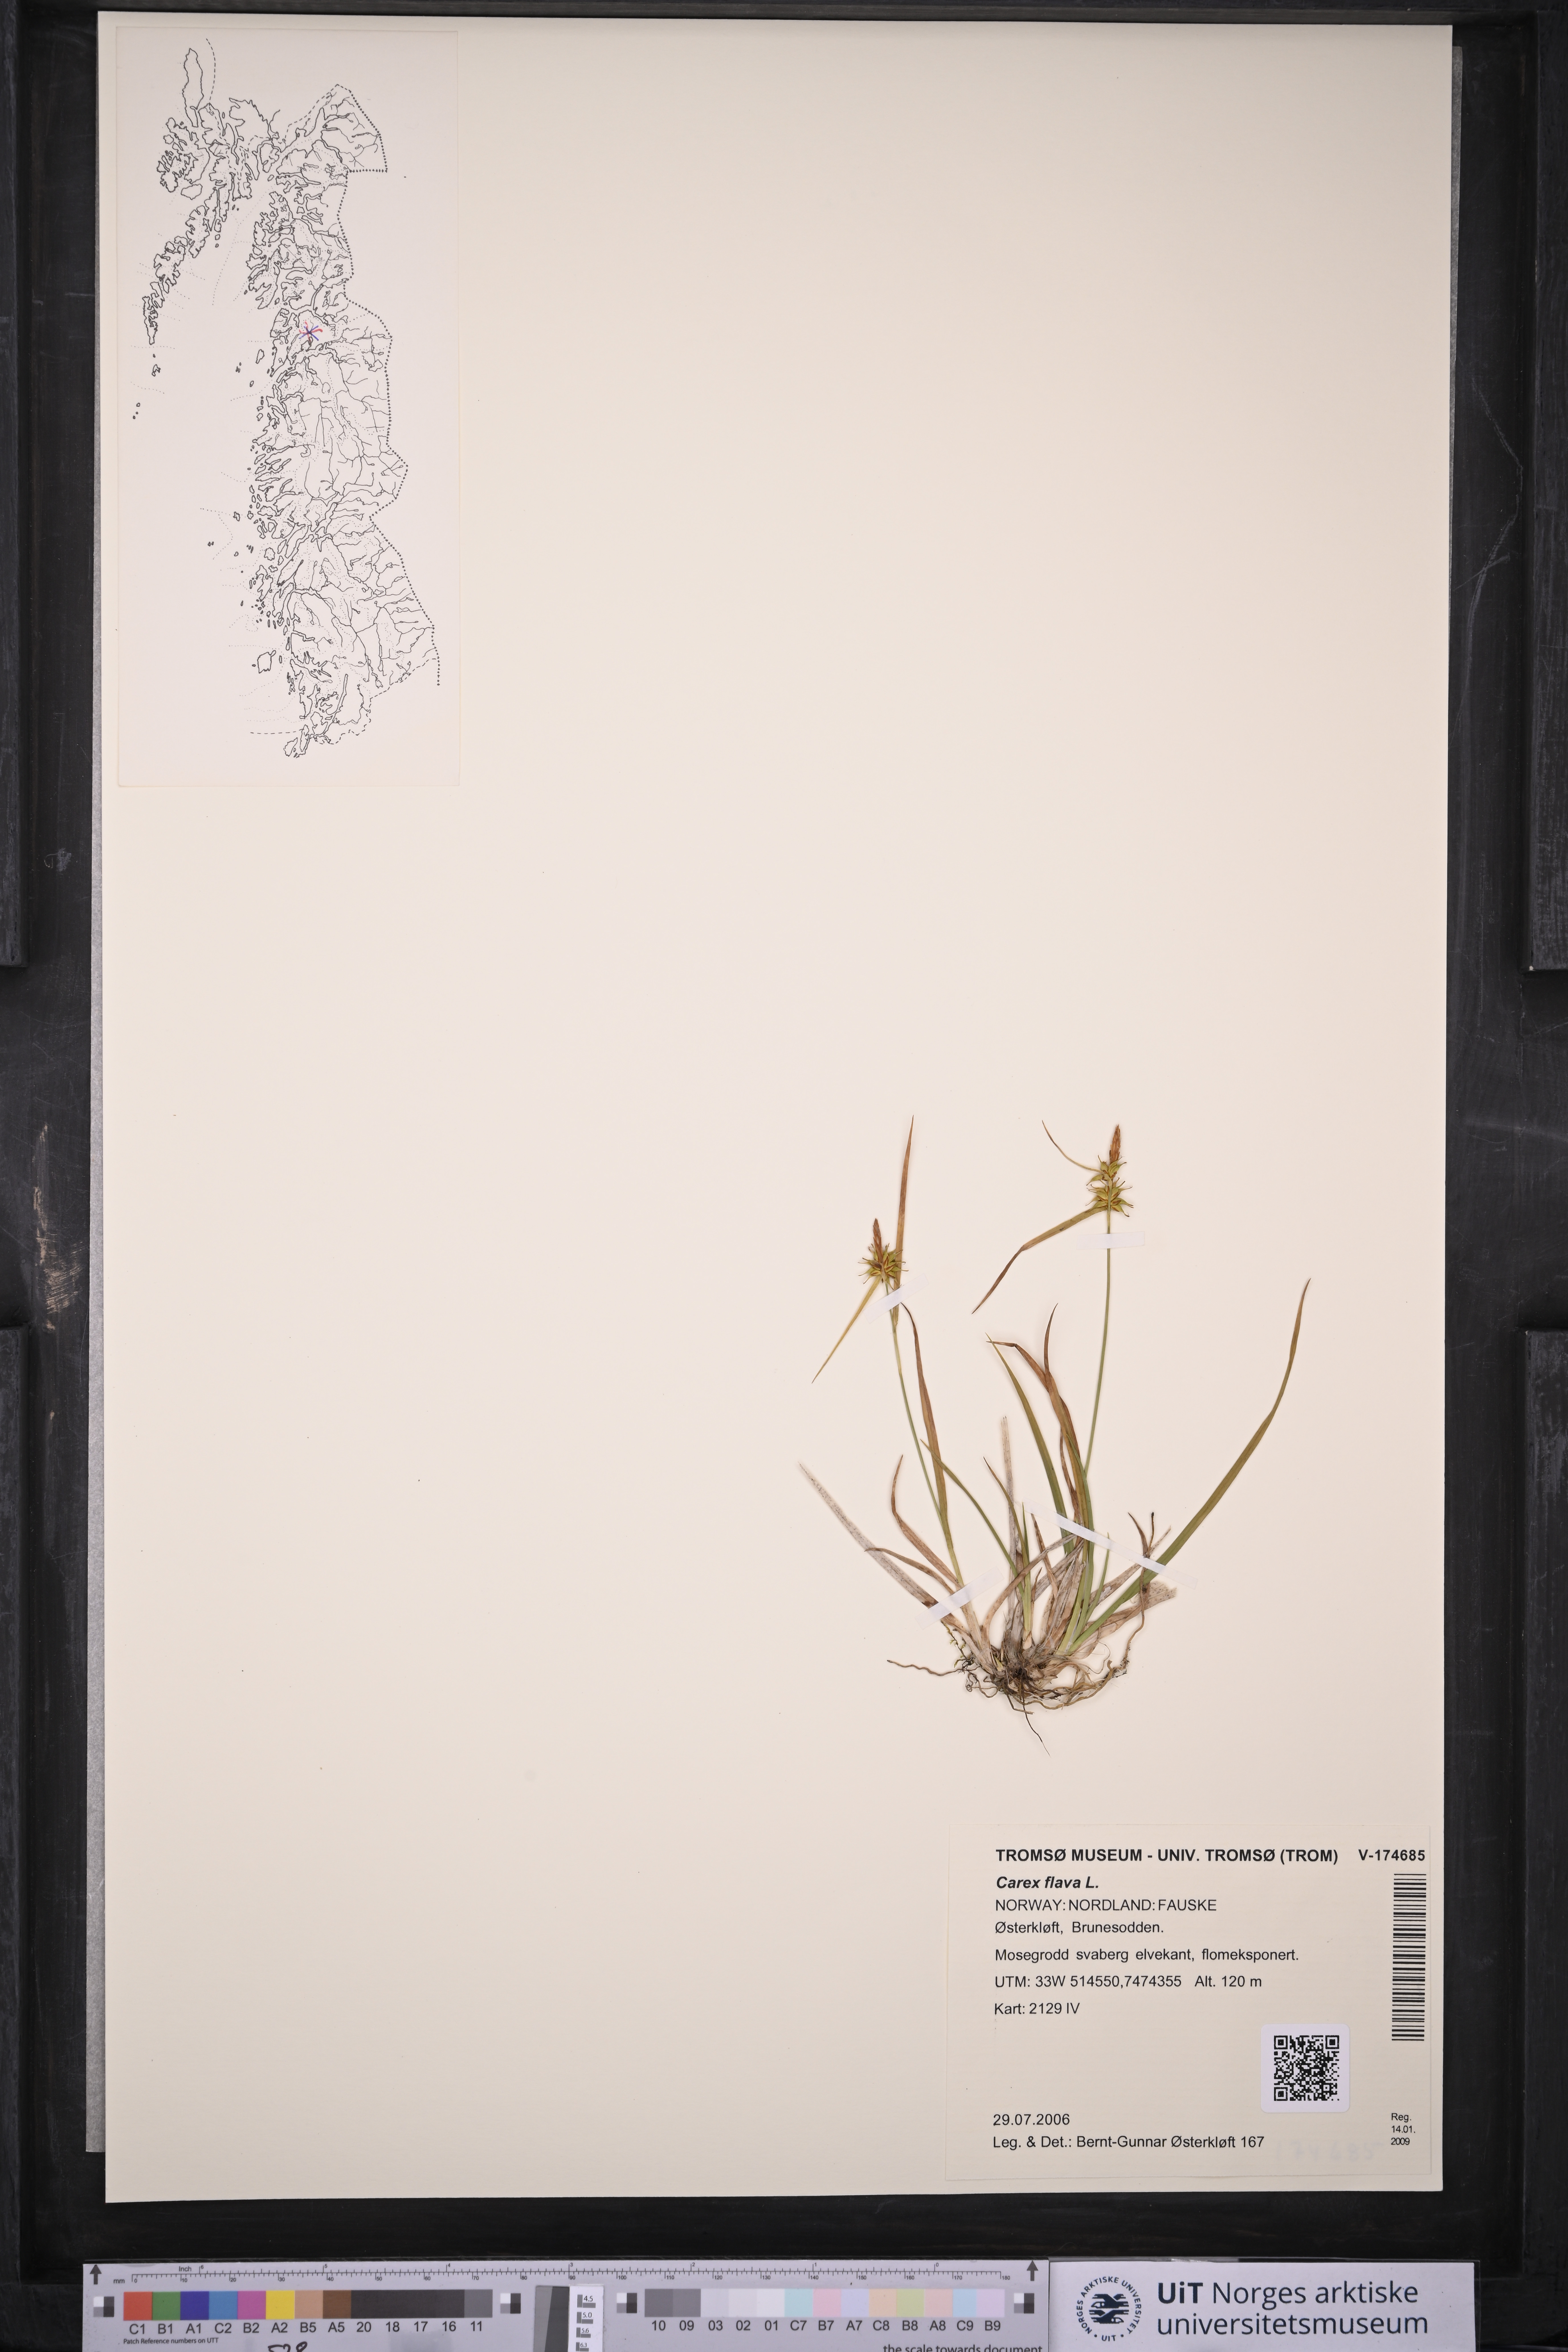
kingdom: Plantae
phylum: Tracheophyta
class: Liliopsida
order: Poales
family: Cyperaceae
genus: Carex
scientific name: Carex flava
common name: Large yellow-sedge
